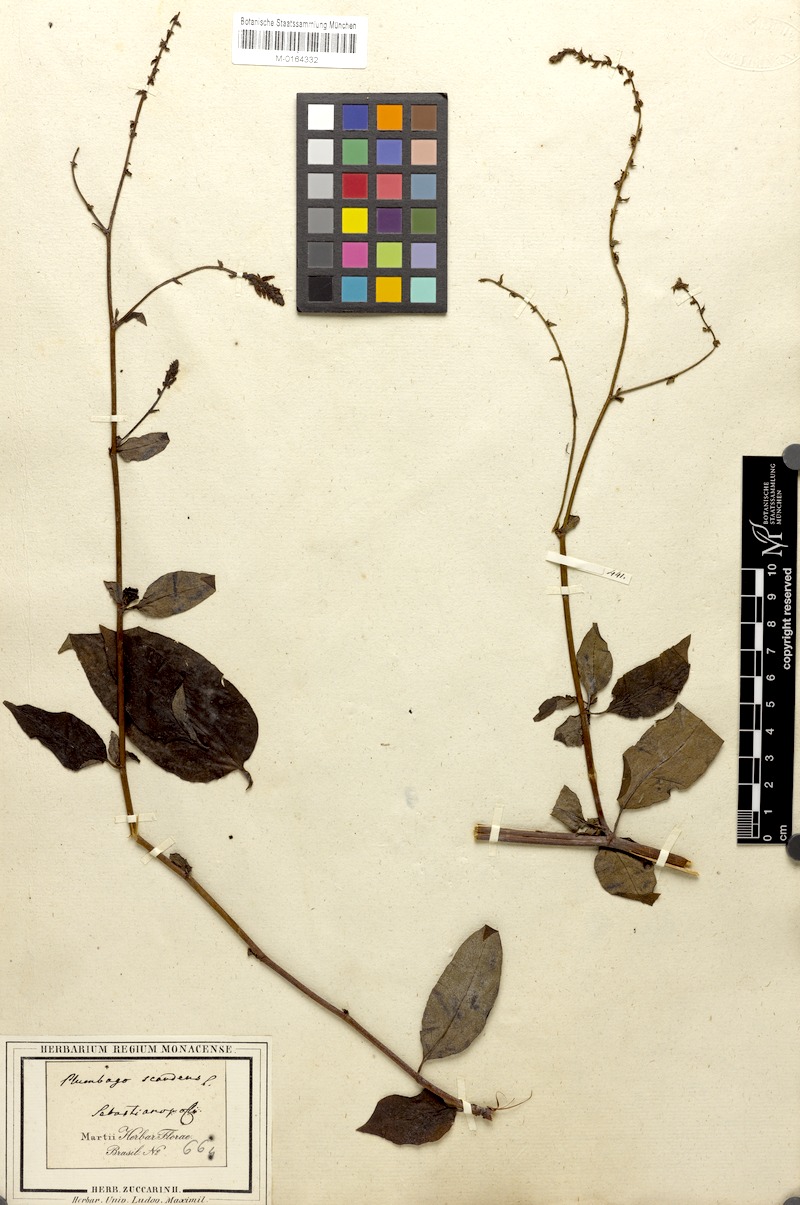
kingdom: Plantae
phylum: Tracheophyta
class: Magnoliopsida
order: Caryophyllales
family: Plumbaginaceae
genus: Plumbago
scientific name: Plumbago zeylanica
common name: Doctorbush
